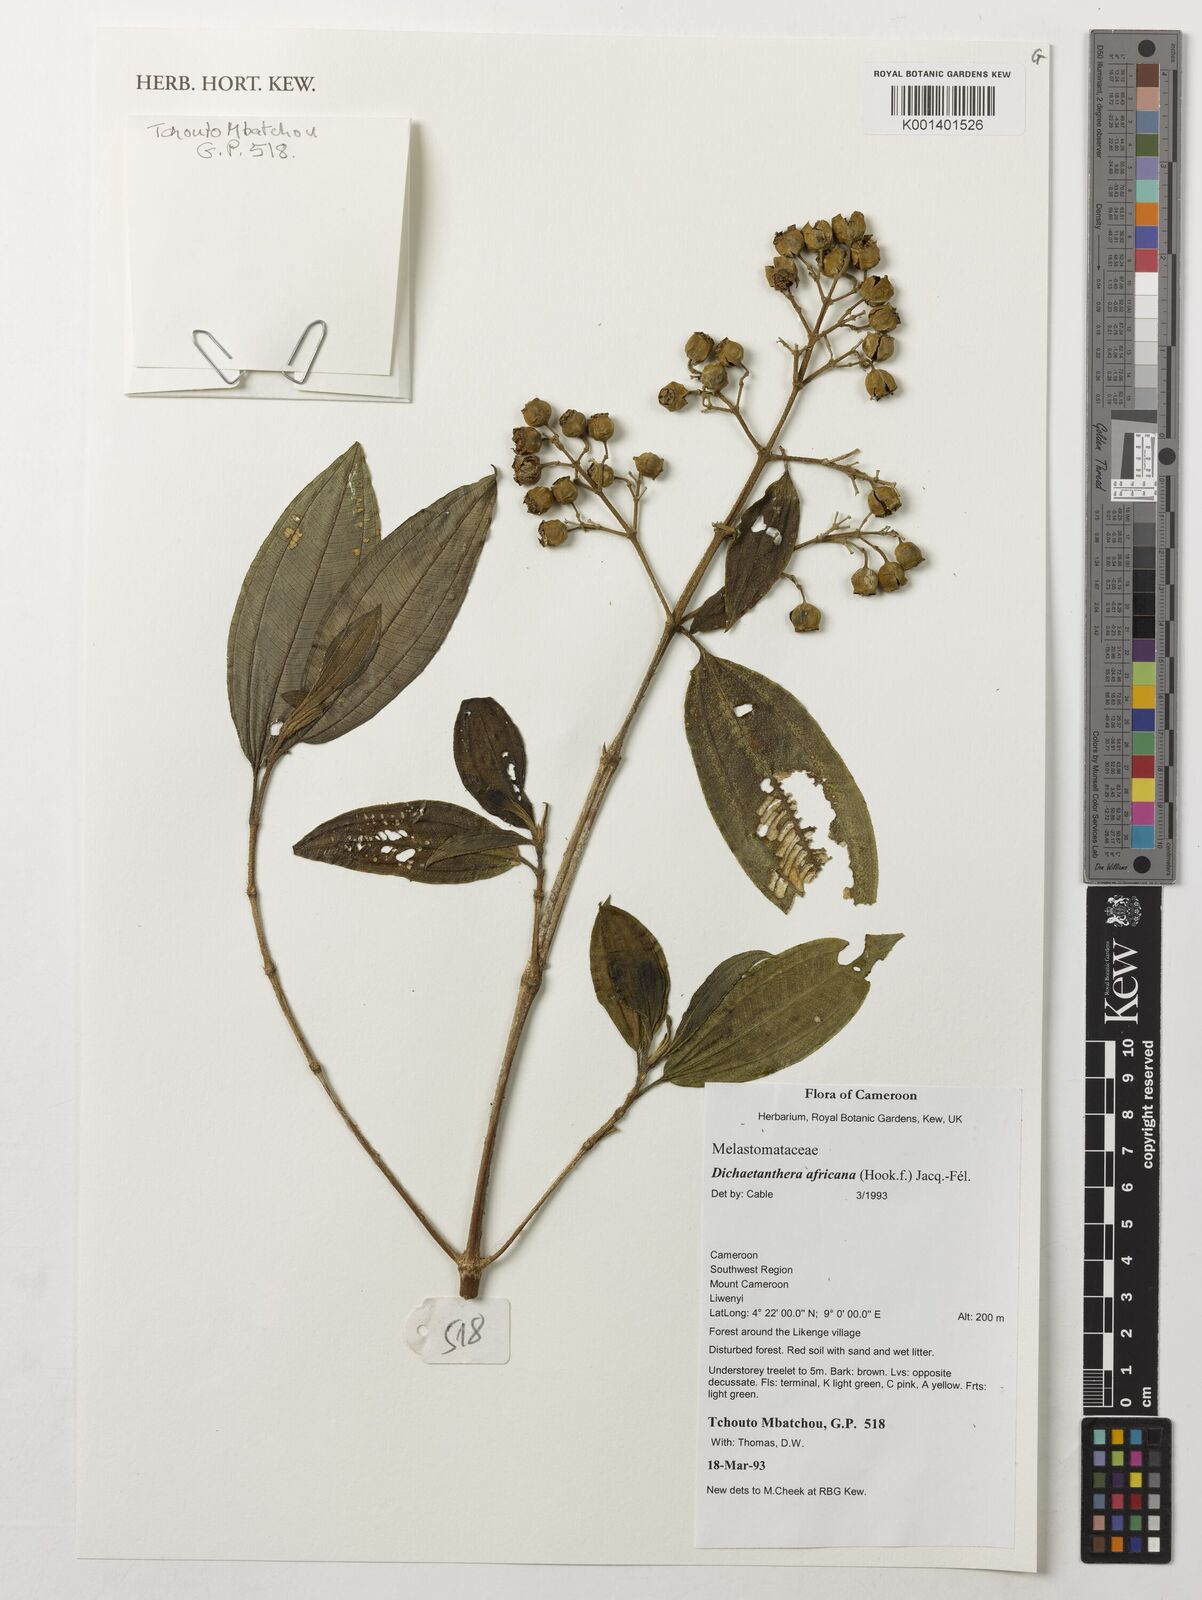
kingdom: Plantae
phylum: Tracheophyta
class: Magnoliopsida
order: Myrtales
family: Melastomataceae
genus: Dichaetanthera
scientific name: Dichaetanthera africana
